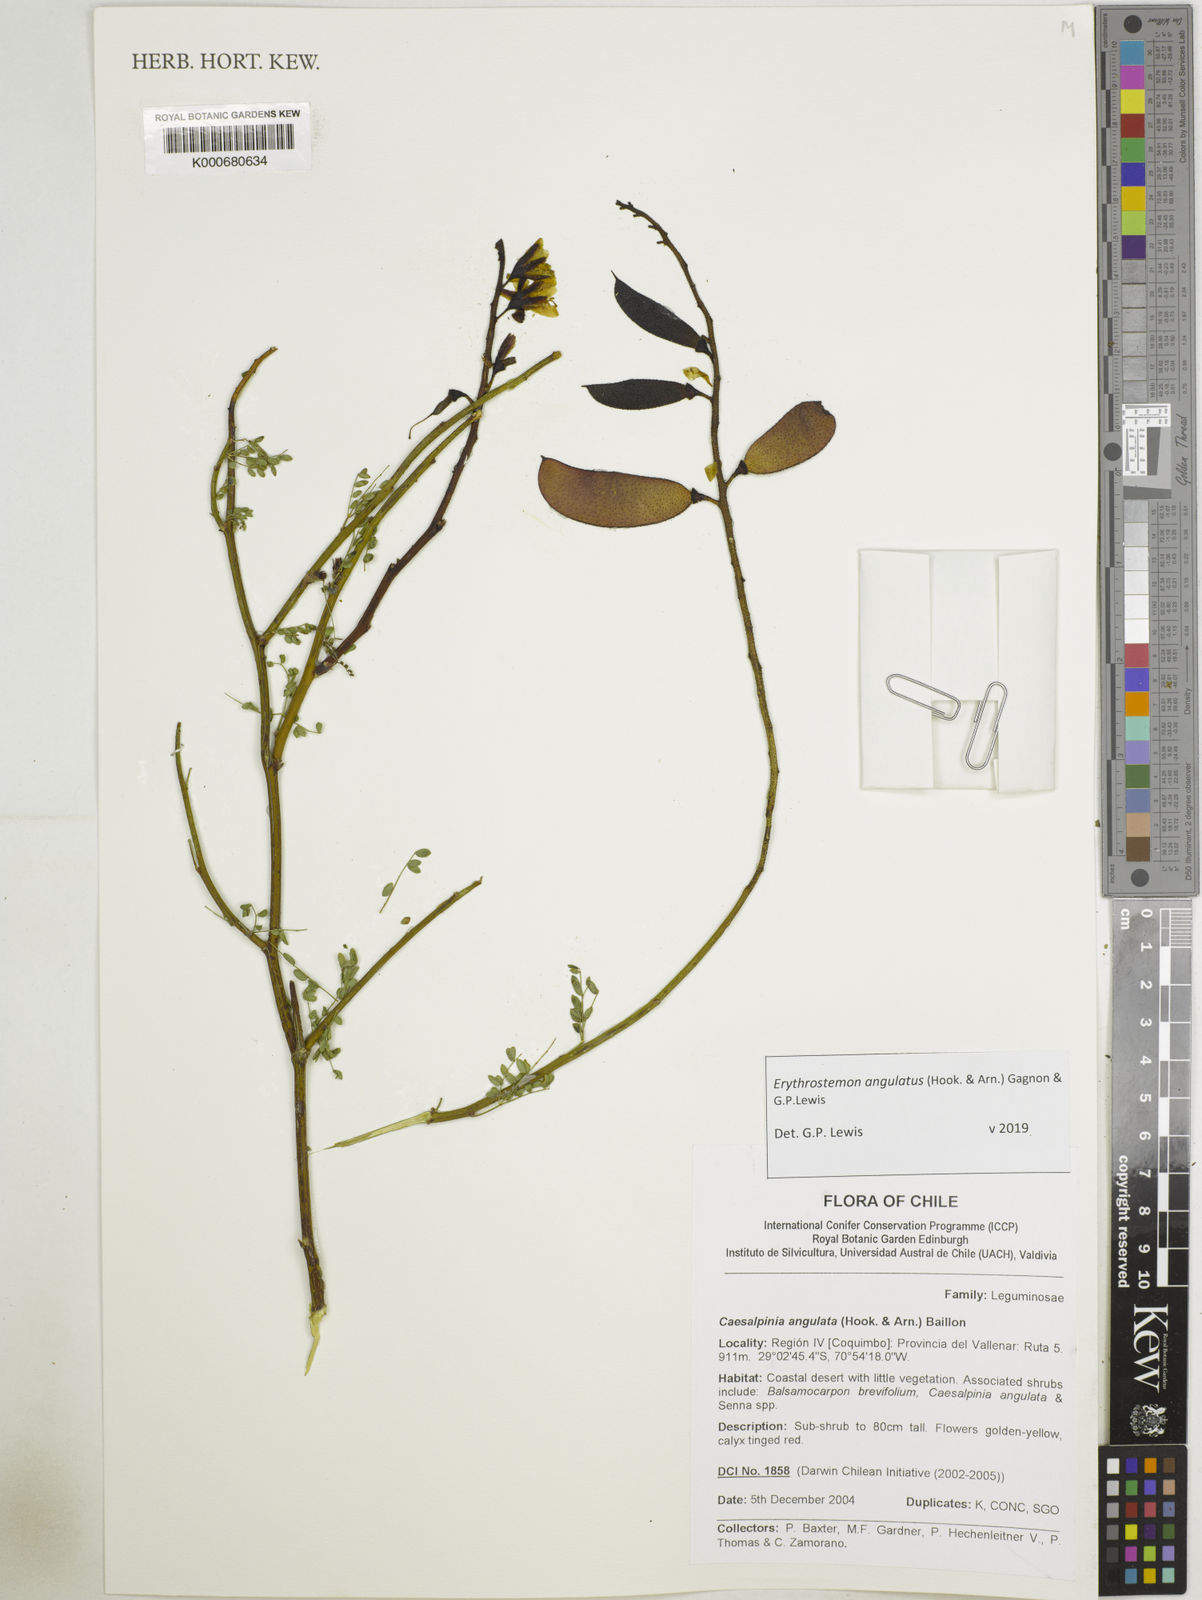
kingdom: Plantae
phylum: Tracheophyta
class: Magnoliopsida
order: Fabales
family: Fabaceae
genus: Caesalpinia
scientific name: Caesalpinia
